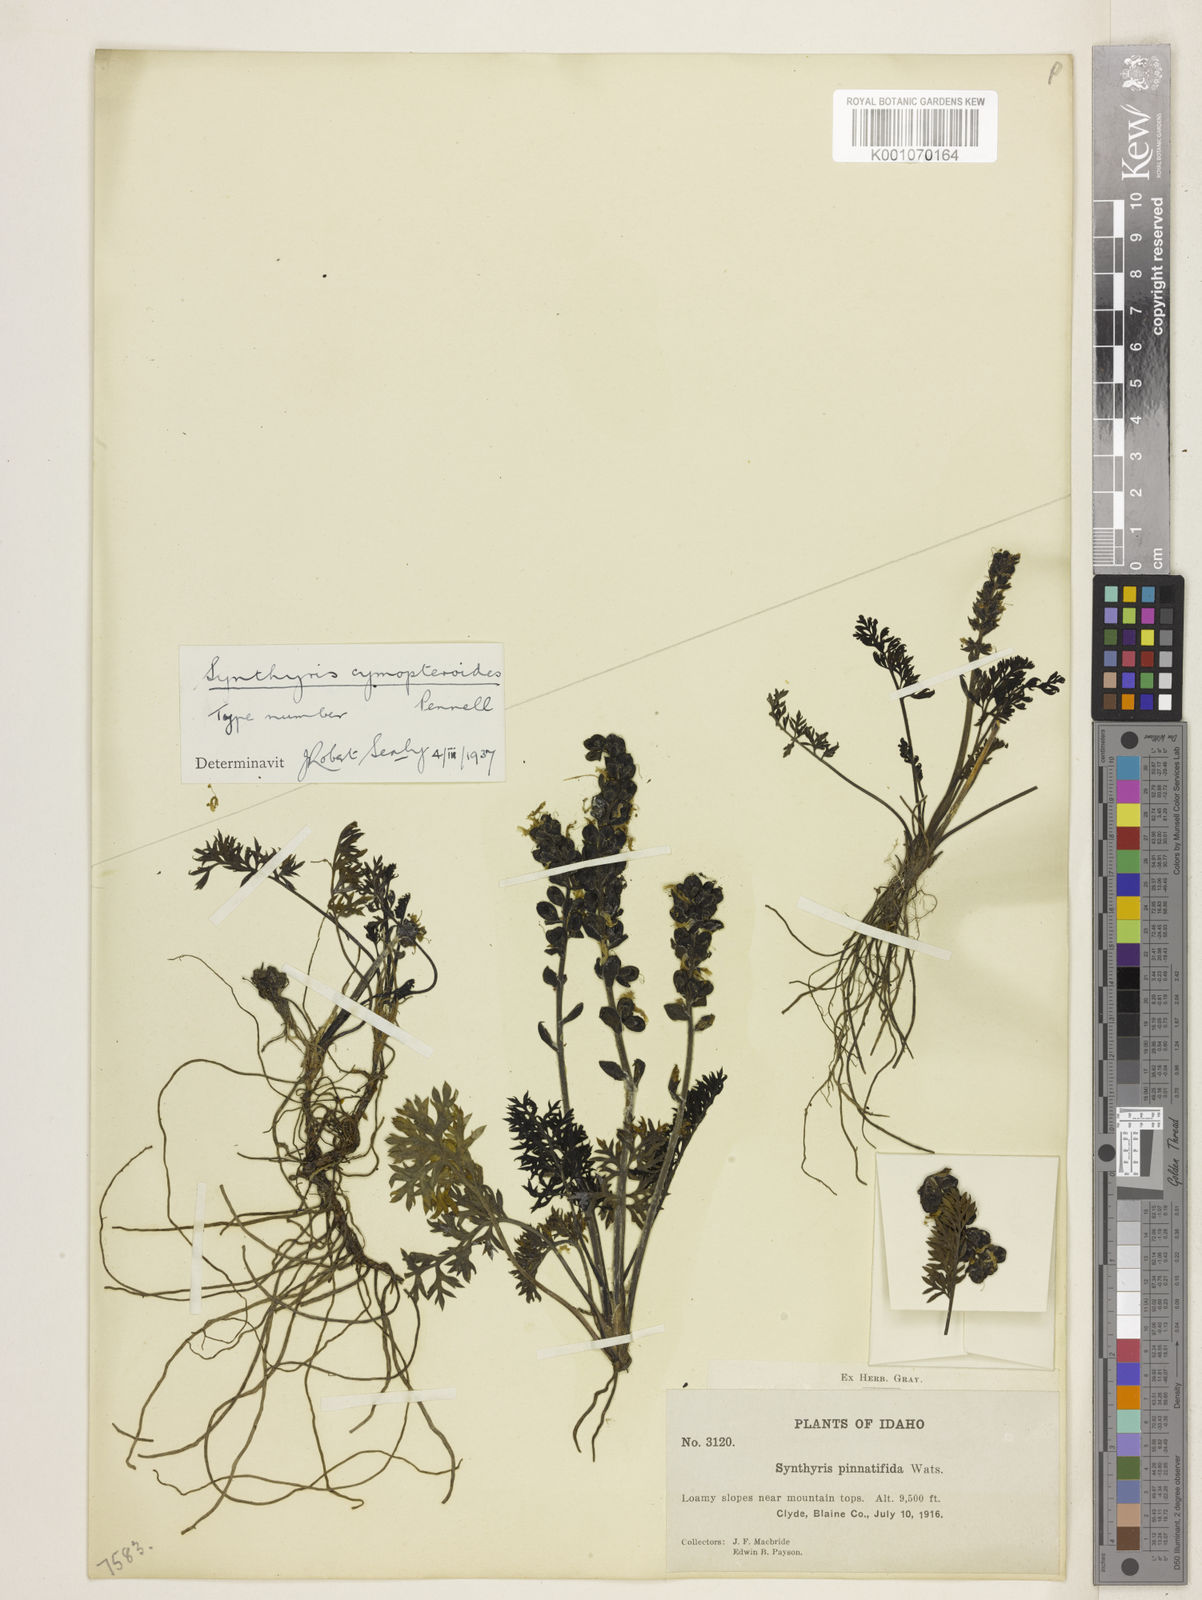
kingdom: Plantae
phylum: Tracheophyta
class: Magnoliopsida
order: Lamiales
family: Plantaginaceae
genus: Synthyris
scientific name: Synthyris dissecta
